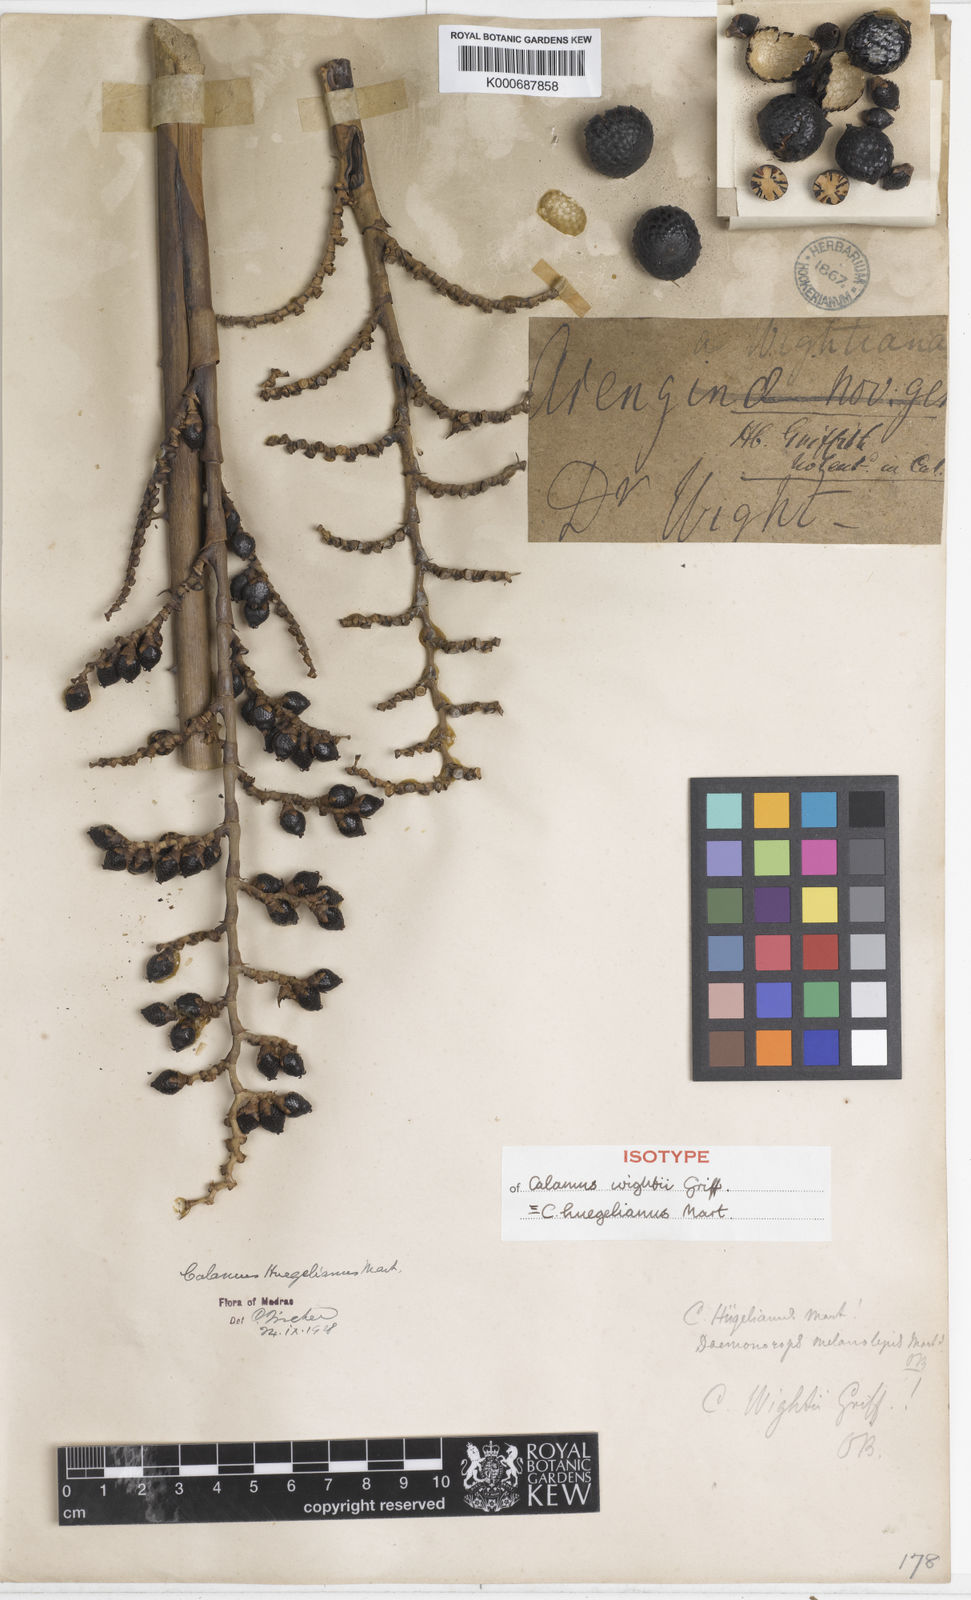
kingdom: Plantae
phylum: Tracheophyta
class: Liliopsida
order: Arecales
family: Arecaceae
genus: Calamus
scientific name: Calamus
